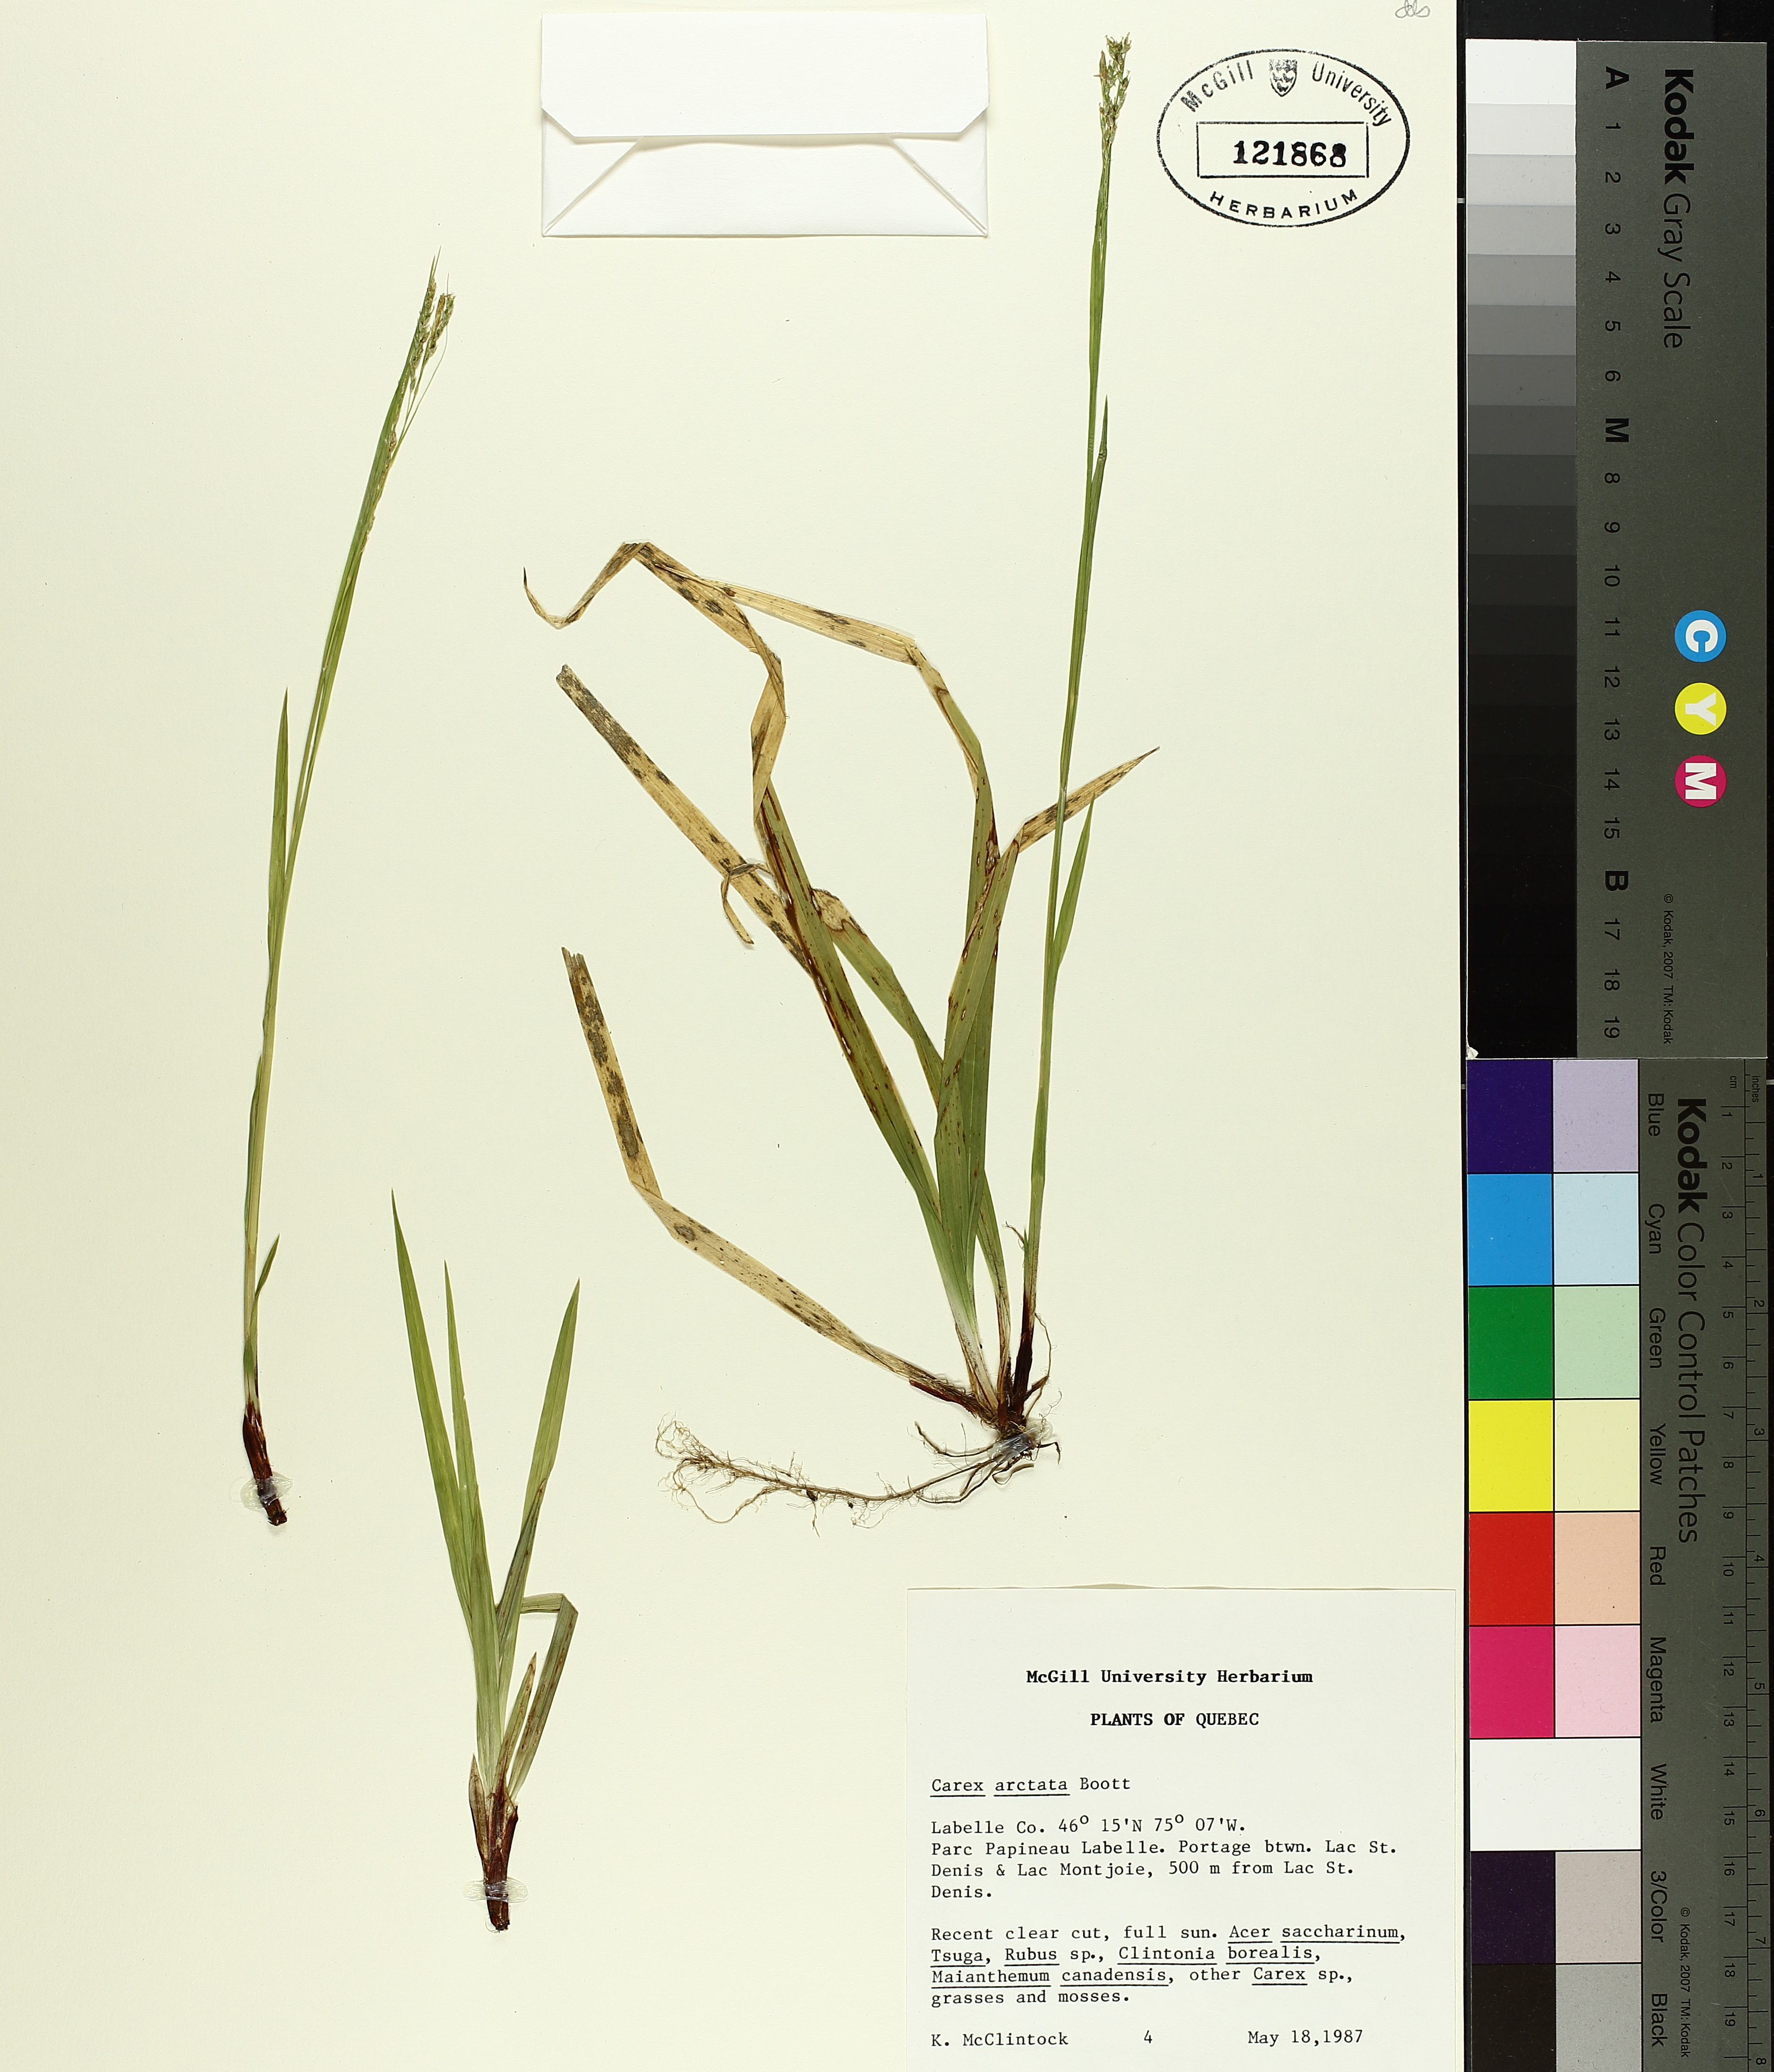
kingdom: Plantae
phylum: Tracheophyta
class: Liliopsida
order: Poales
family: Cyperaceae
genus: Carex
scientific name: Carex arctata
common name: Black sedge
